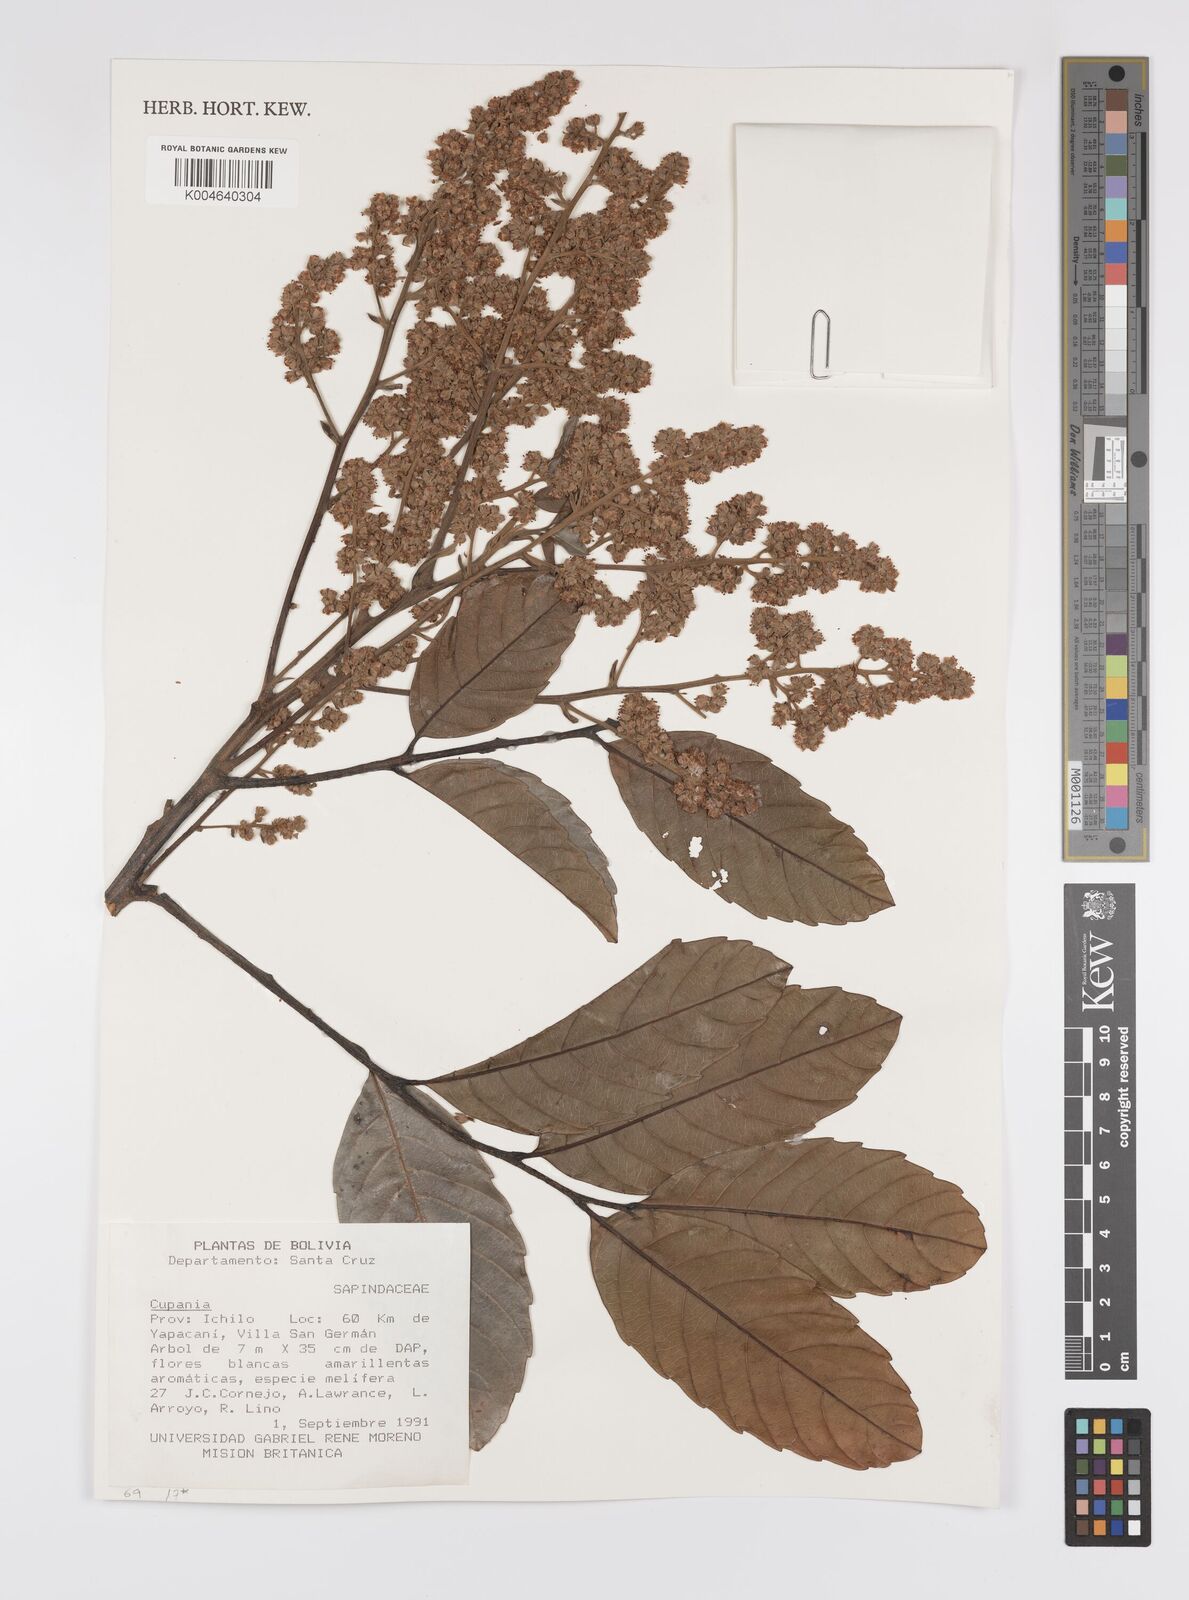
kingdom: Plantae
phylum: Tracheophyta
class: Magnoliopsida
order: Sapindales
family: Sapindaceae
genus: Cupania
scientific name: Cupania
